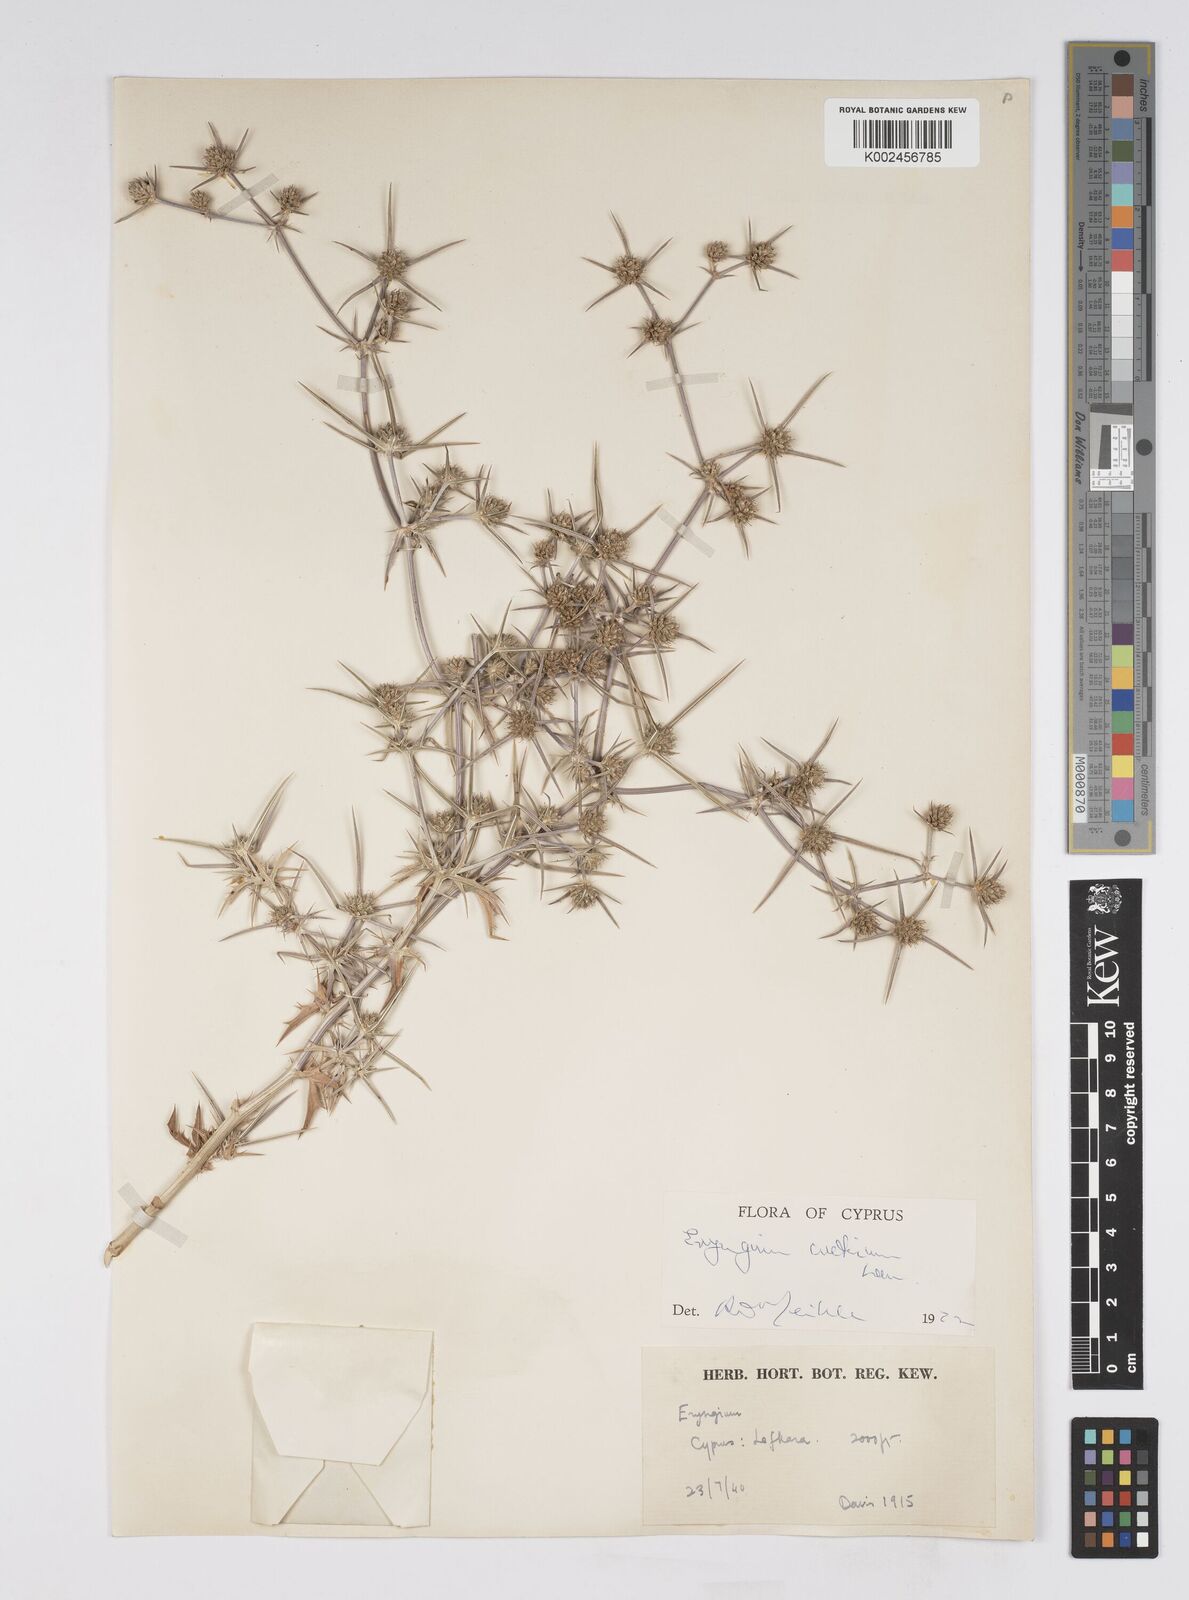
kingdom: Plantae
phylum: Tracheophyta
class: Magnoliopsida
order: Apiales
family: Apiaceae
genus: Eryngium
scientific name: Eryngium creticum
